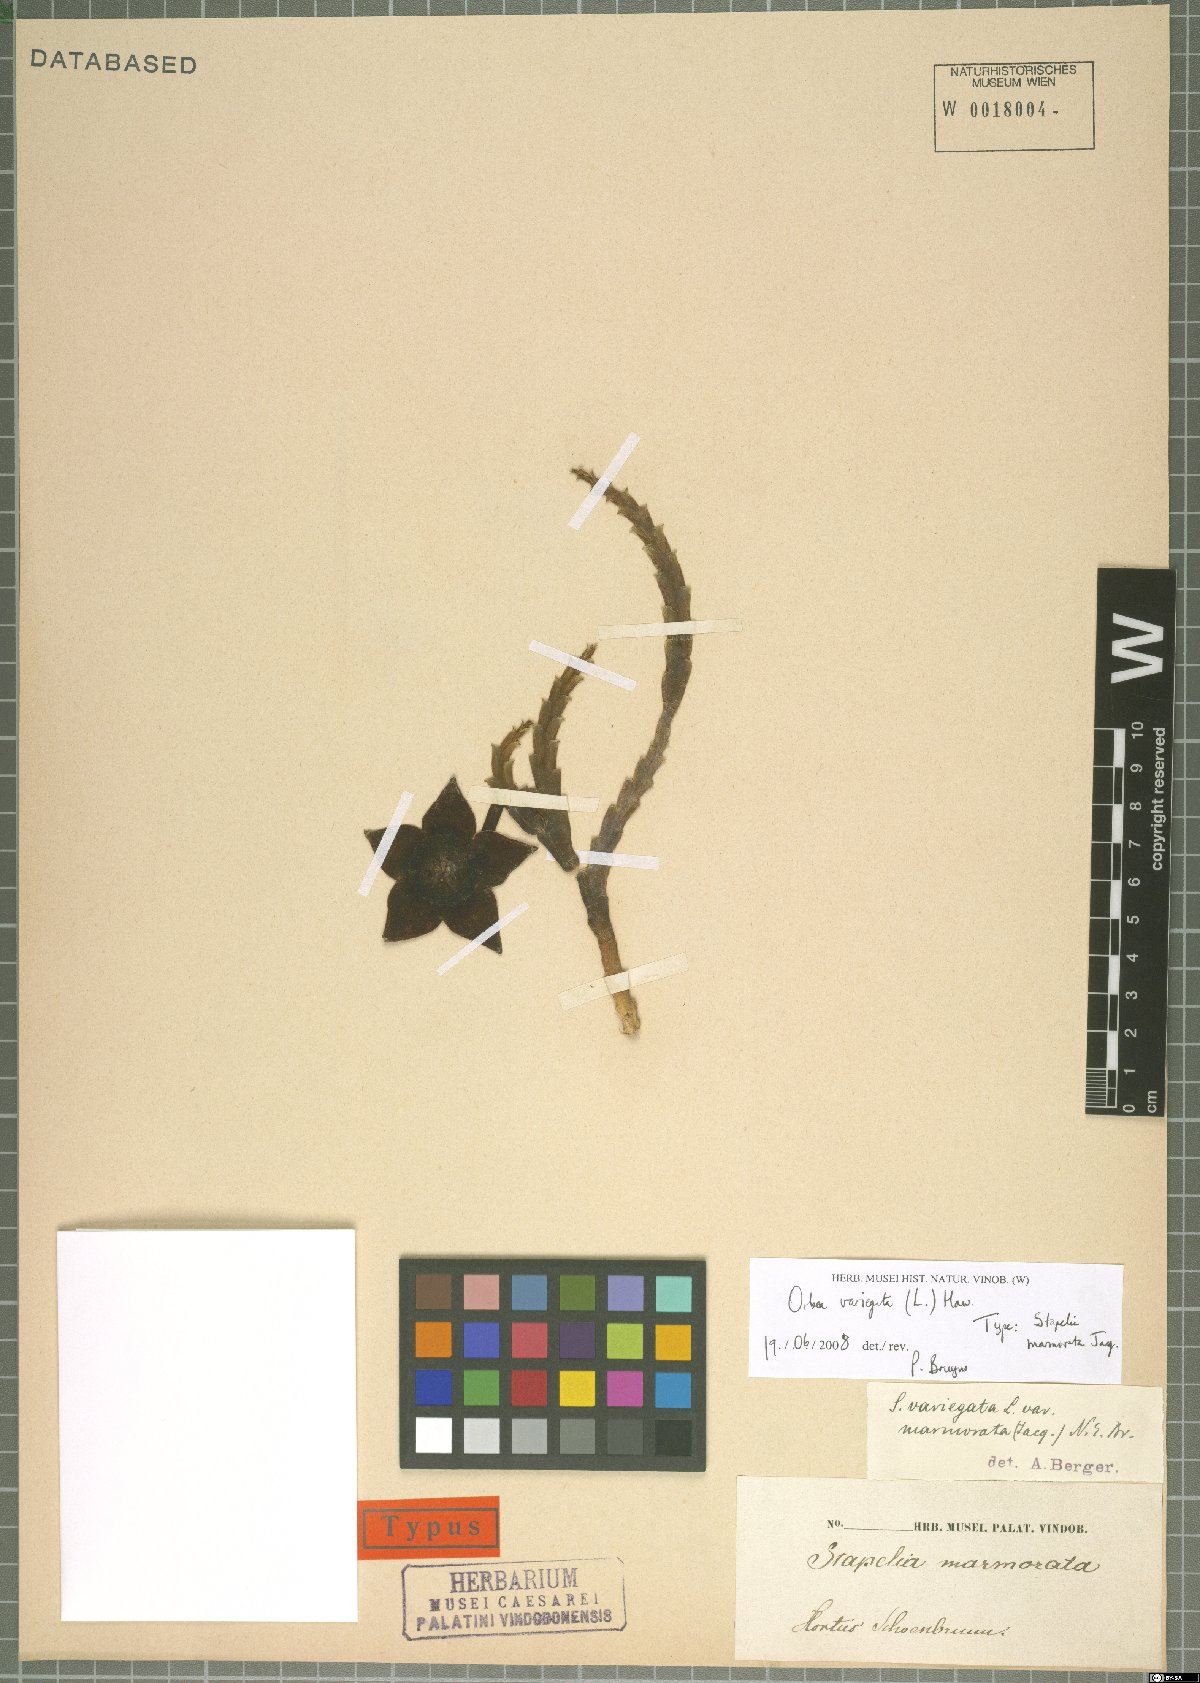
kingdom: Plantae
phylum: Tracheophyta
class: Magnoliopsida
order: Gentianales
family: Apocynaceae
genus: Ceropegia
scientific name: Ceropegia mixta
